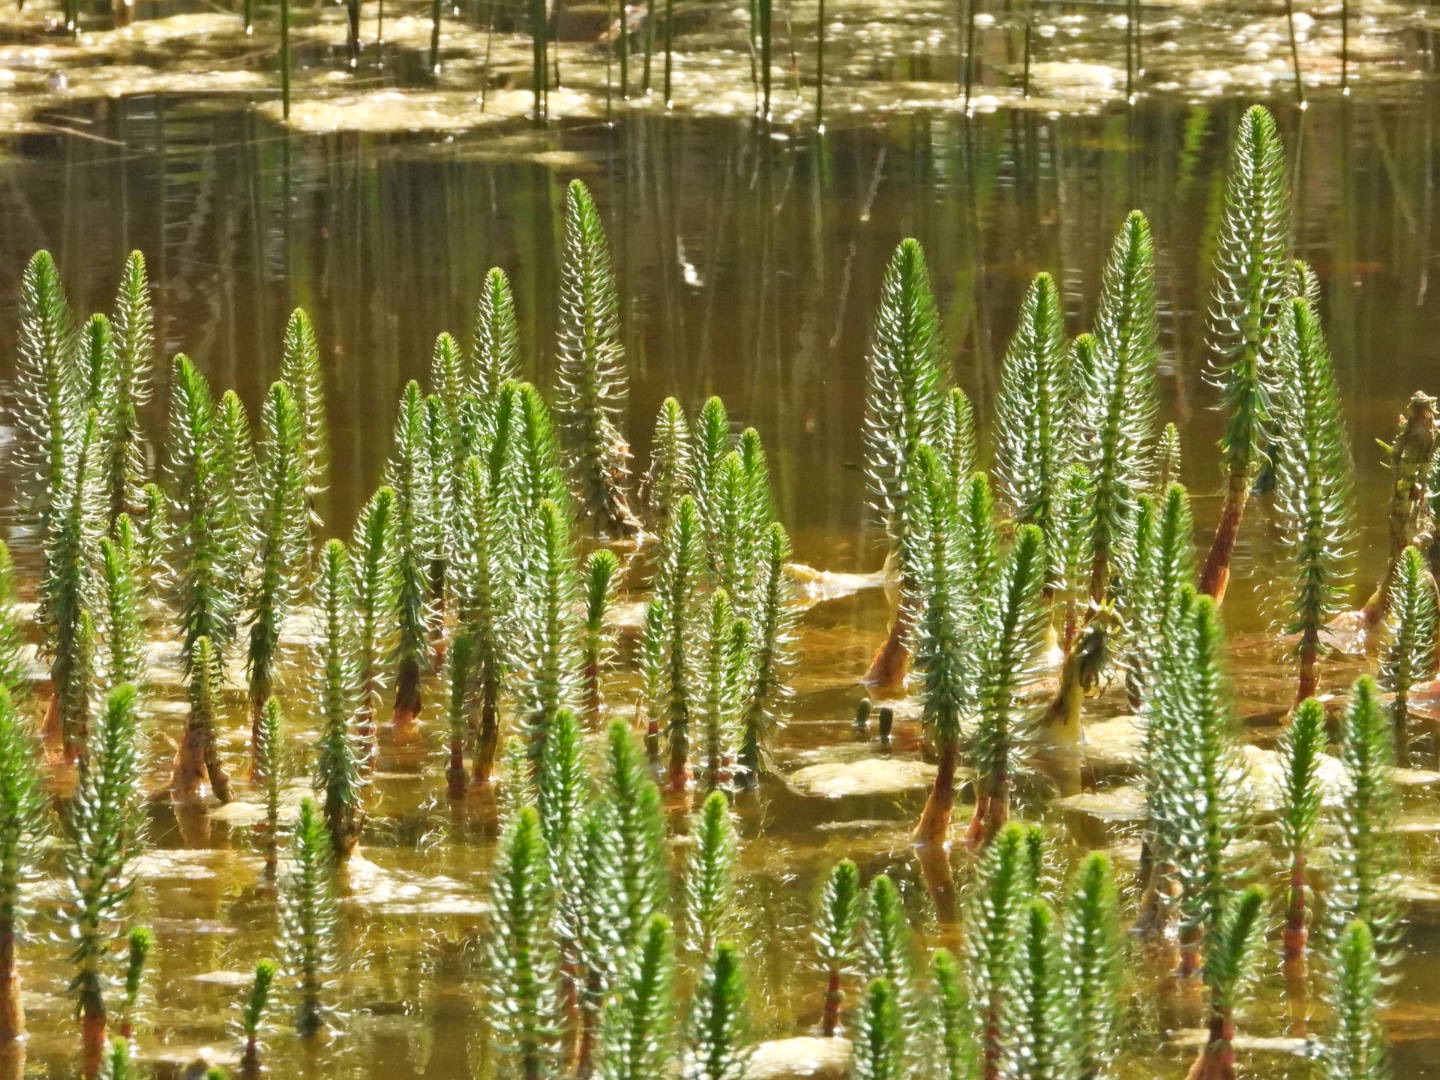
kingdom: Plantae
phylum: Tracheophyta
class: Magnoliopsida
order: Lamiales
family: Plantaginaceae
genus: Hippuris
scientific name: Hippuris vulgaris
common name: Vandspir
